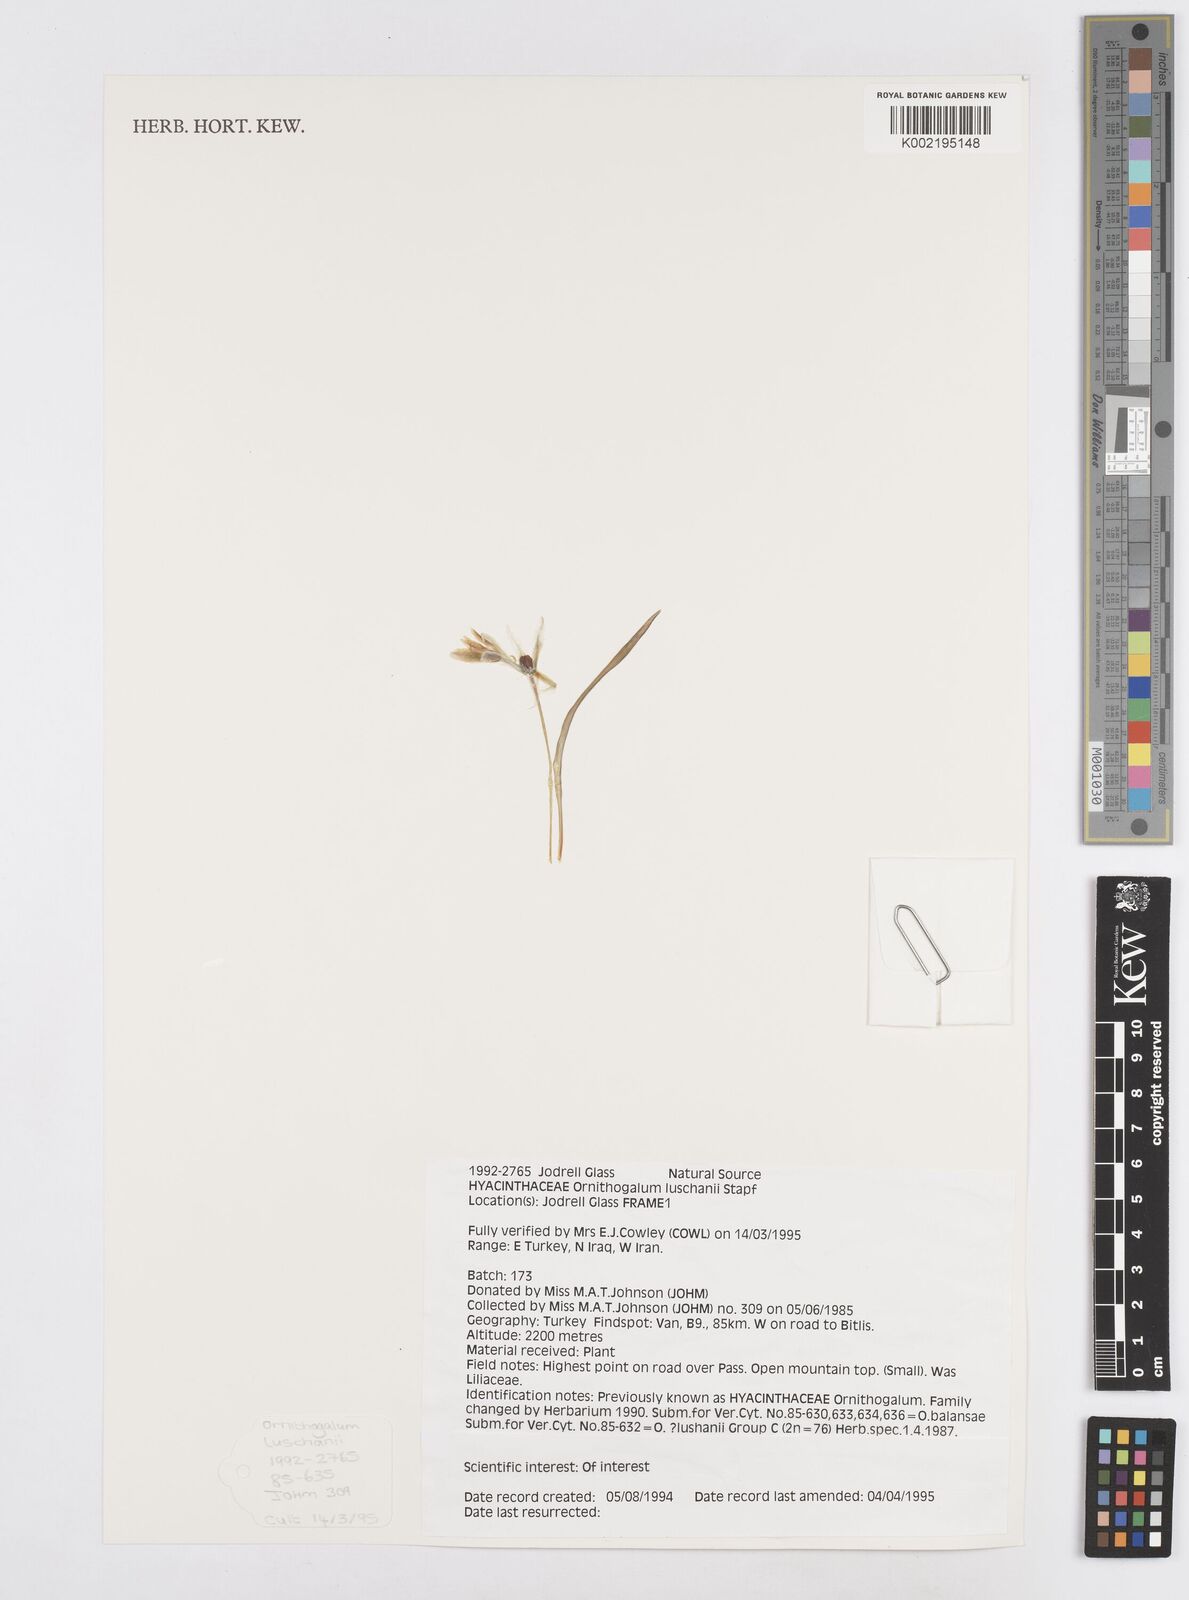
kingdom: Plantae
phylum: Tracheophyta
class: Liliopsida
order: Asparagales
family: Asparagaceae
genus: Ornithogalum
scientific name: Ornithogalum luschanii
